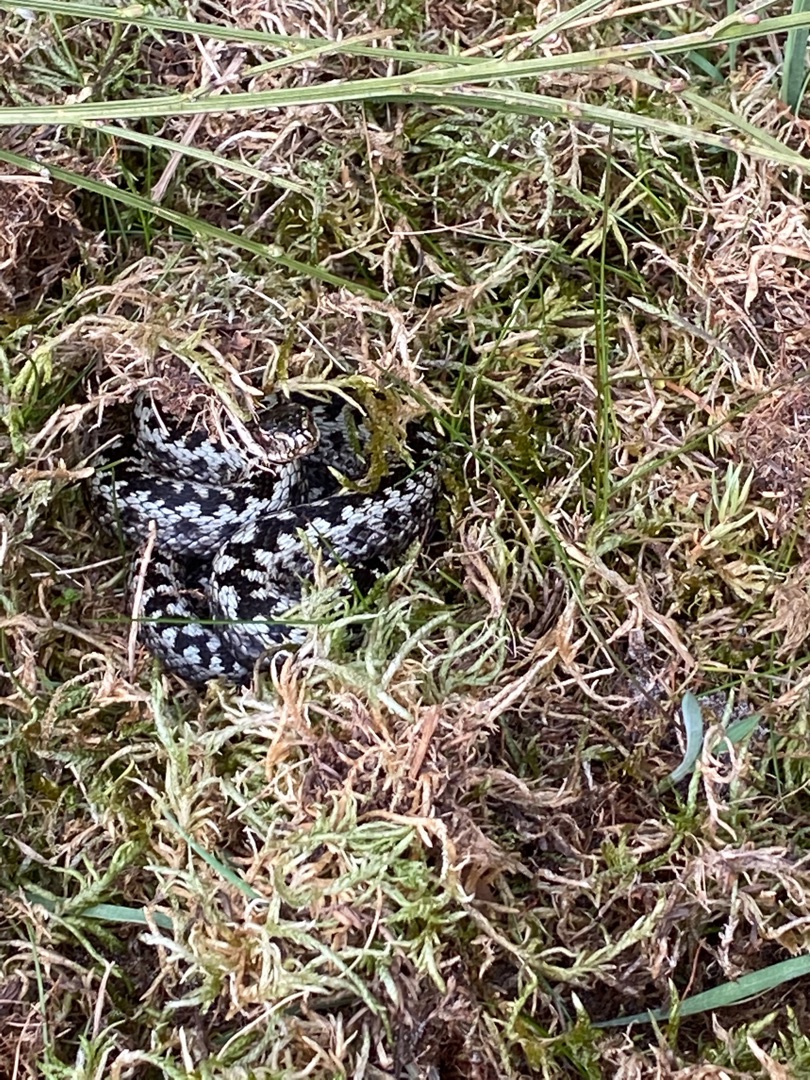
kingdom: Animalia
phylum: Chordata
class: Squamata
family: Viperidae
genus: Vipera
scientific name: Vipera berus
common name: Hugorm
